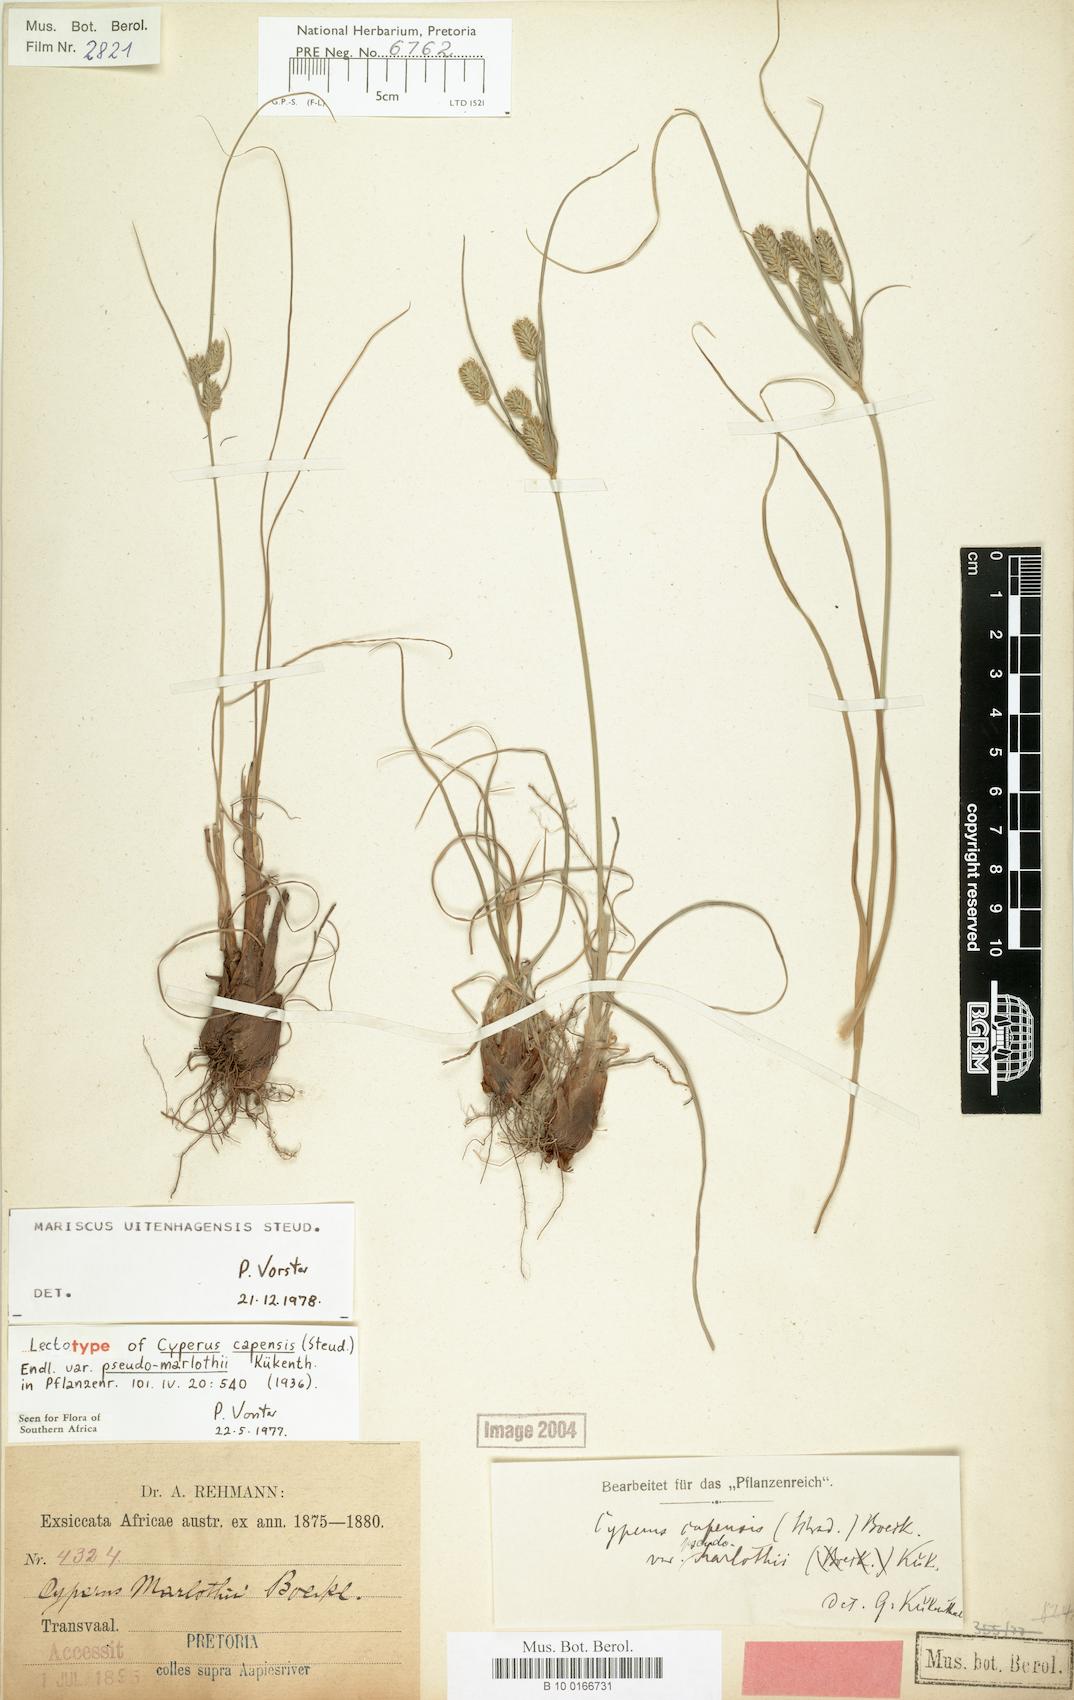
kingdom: Plantae
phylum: Tracheophyta
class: Liliopsida
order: Poales
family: Cyperaceae
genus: Cyperus
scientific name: Cyperus uitenhagensis
